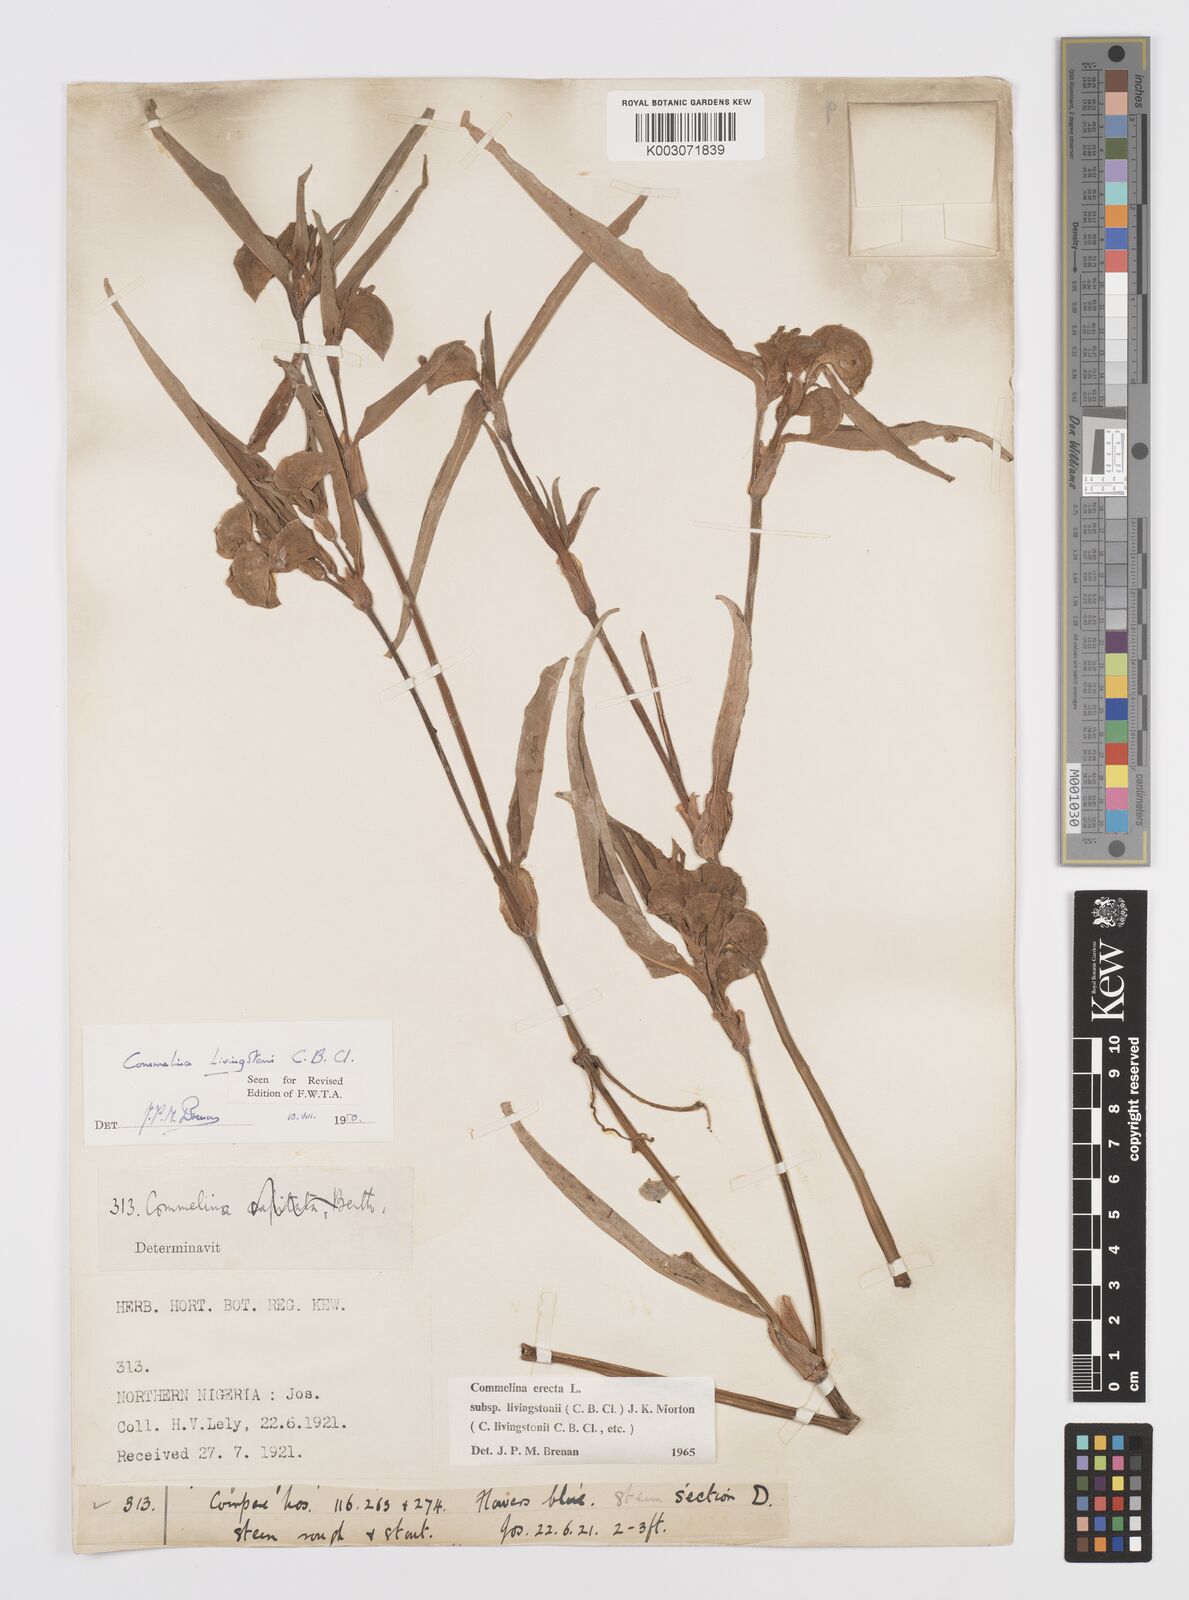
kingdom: Plantae
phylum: Tracheophyta
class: Liliopsida
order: Commelinales
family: Commelinaceae
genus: Commelina
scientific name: Commelina erecta
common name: Blousel blommetjie
